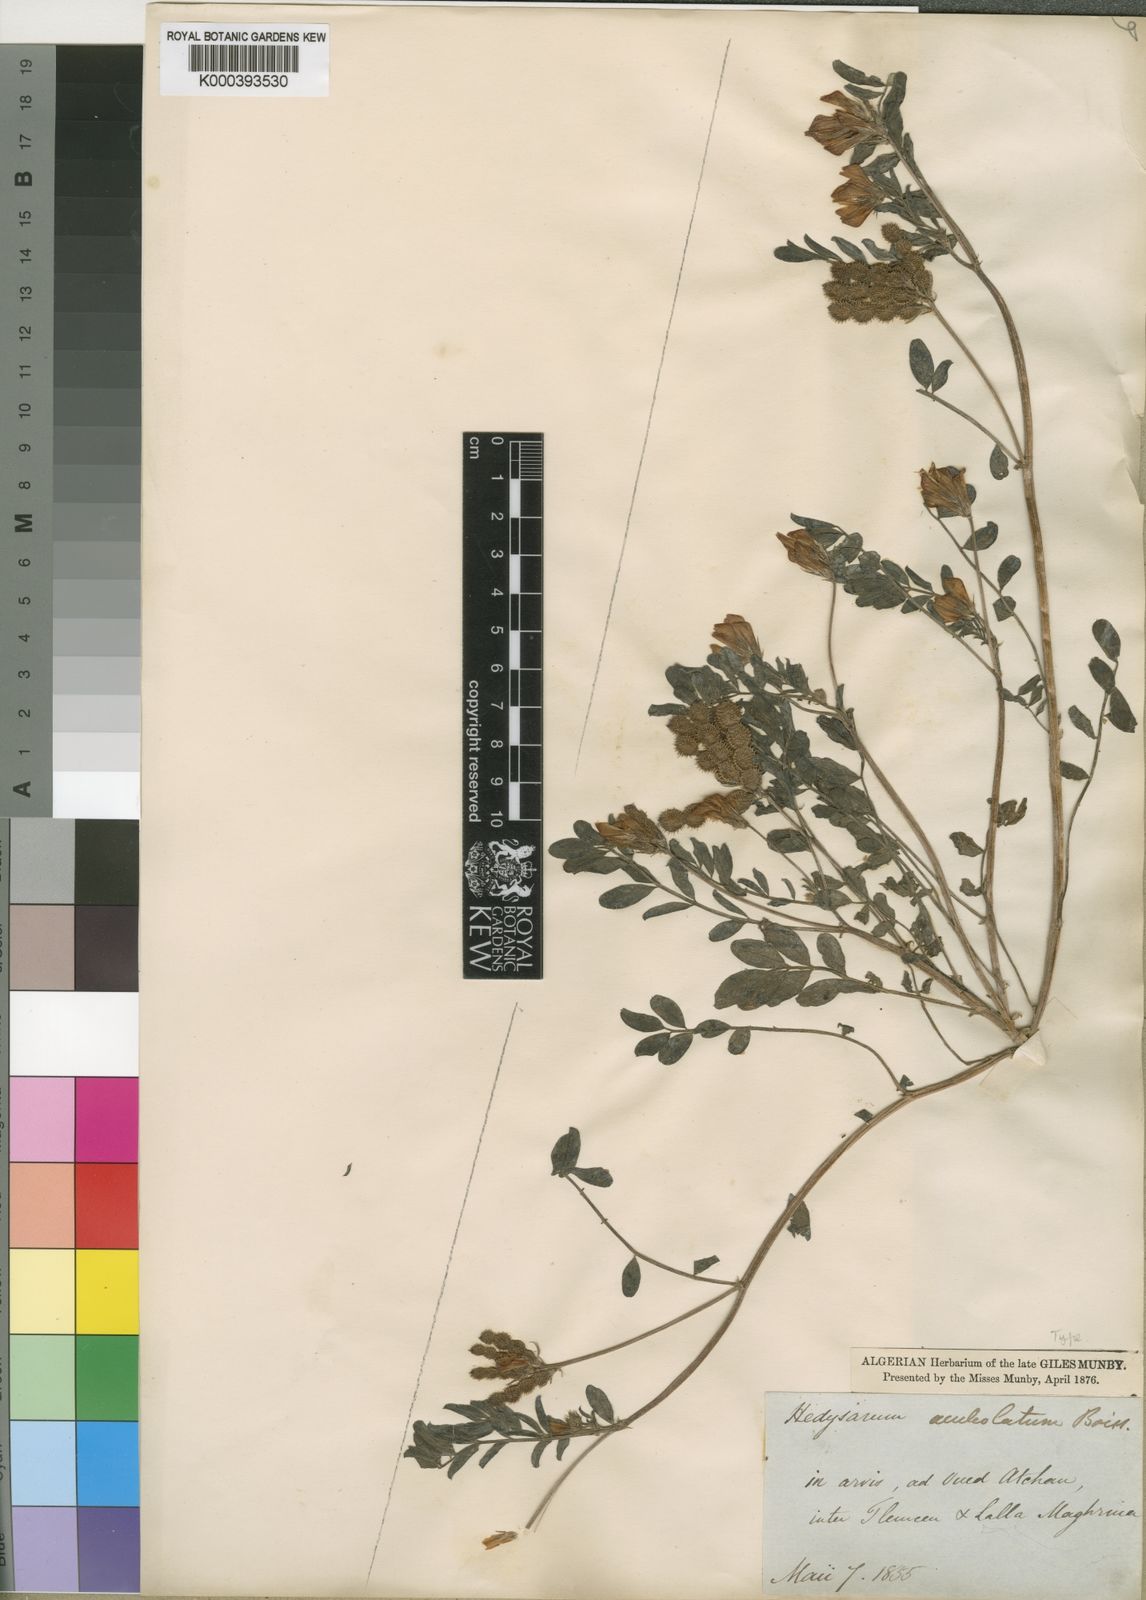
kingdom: Plantae
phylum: Tracheophyta
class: Magnoliopsida
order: Fabales
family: Fabaceae
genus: Grona
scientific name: Grona retroflexa
